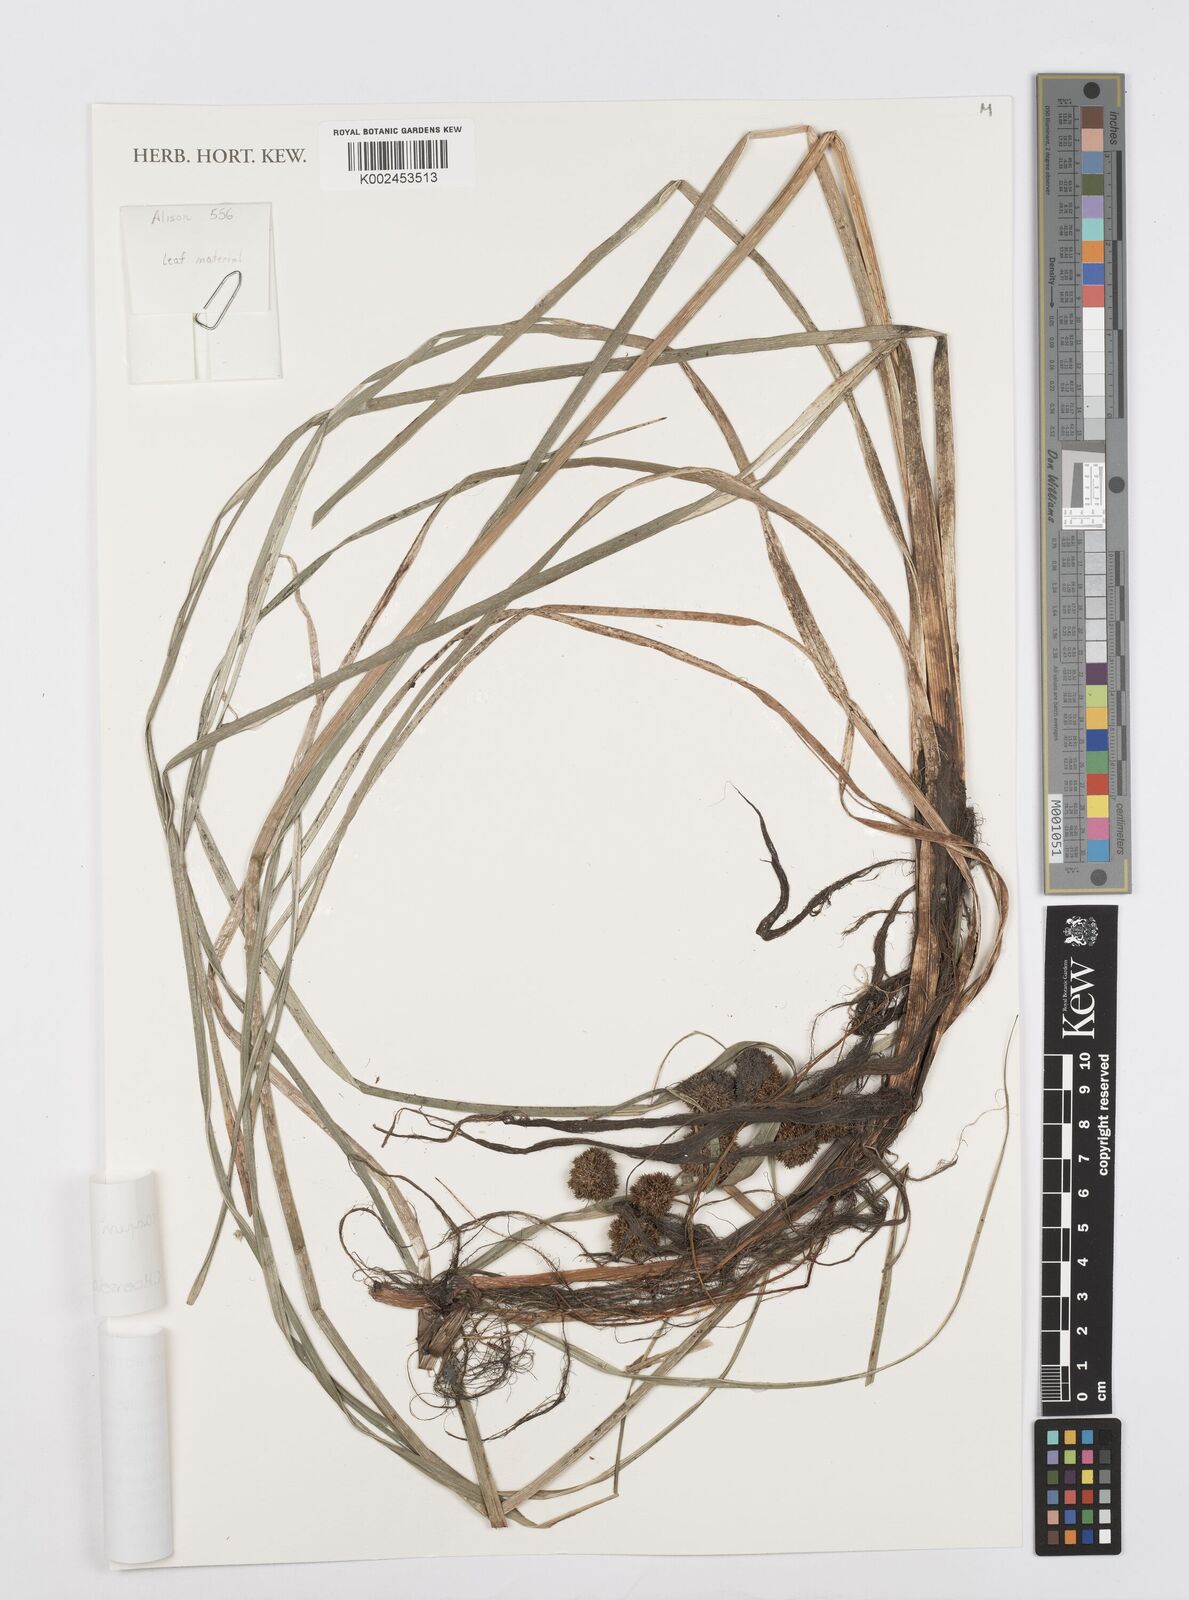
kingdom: Plantae
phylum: Tracheophyta
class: Liliopsida
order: Poales
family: Cyperaceae
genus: Cyperus
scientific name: Cyperus elegans
